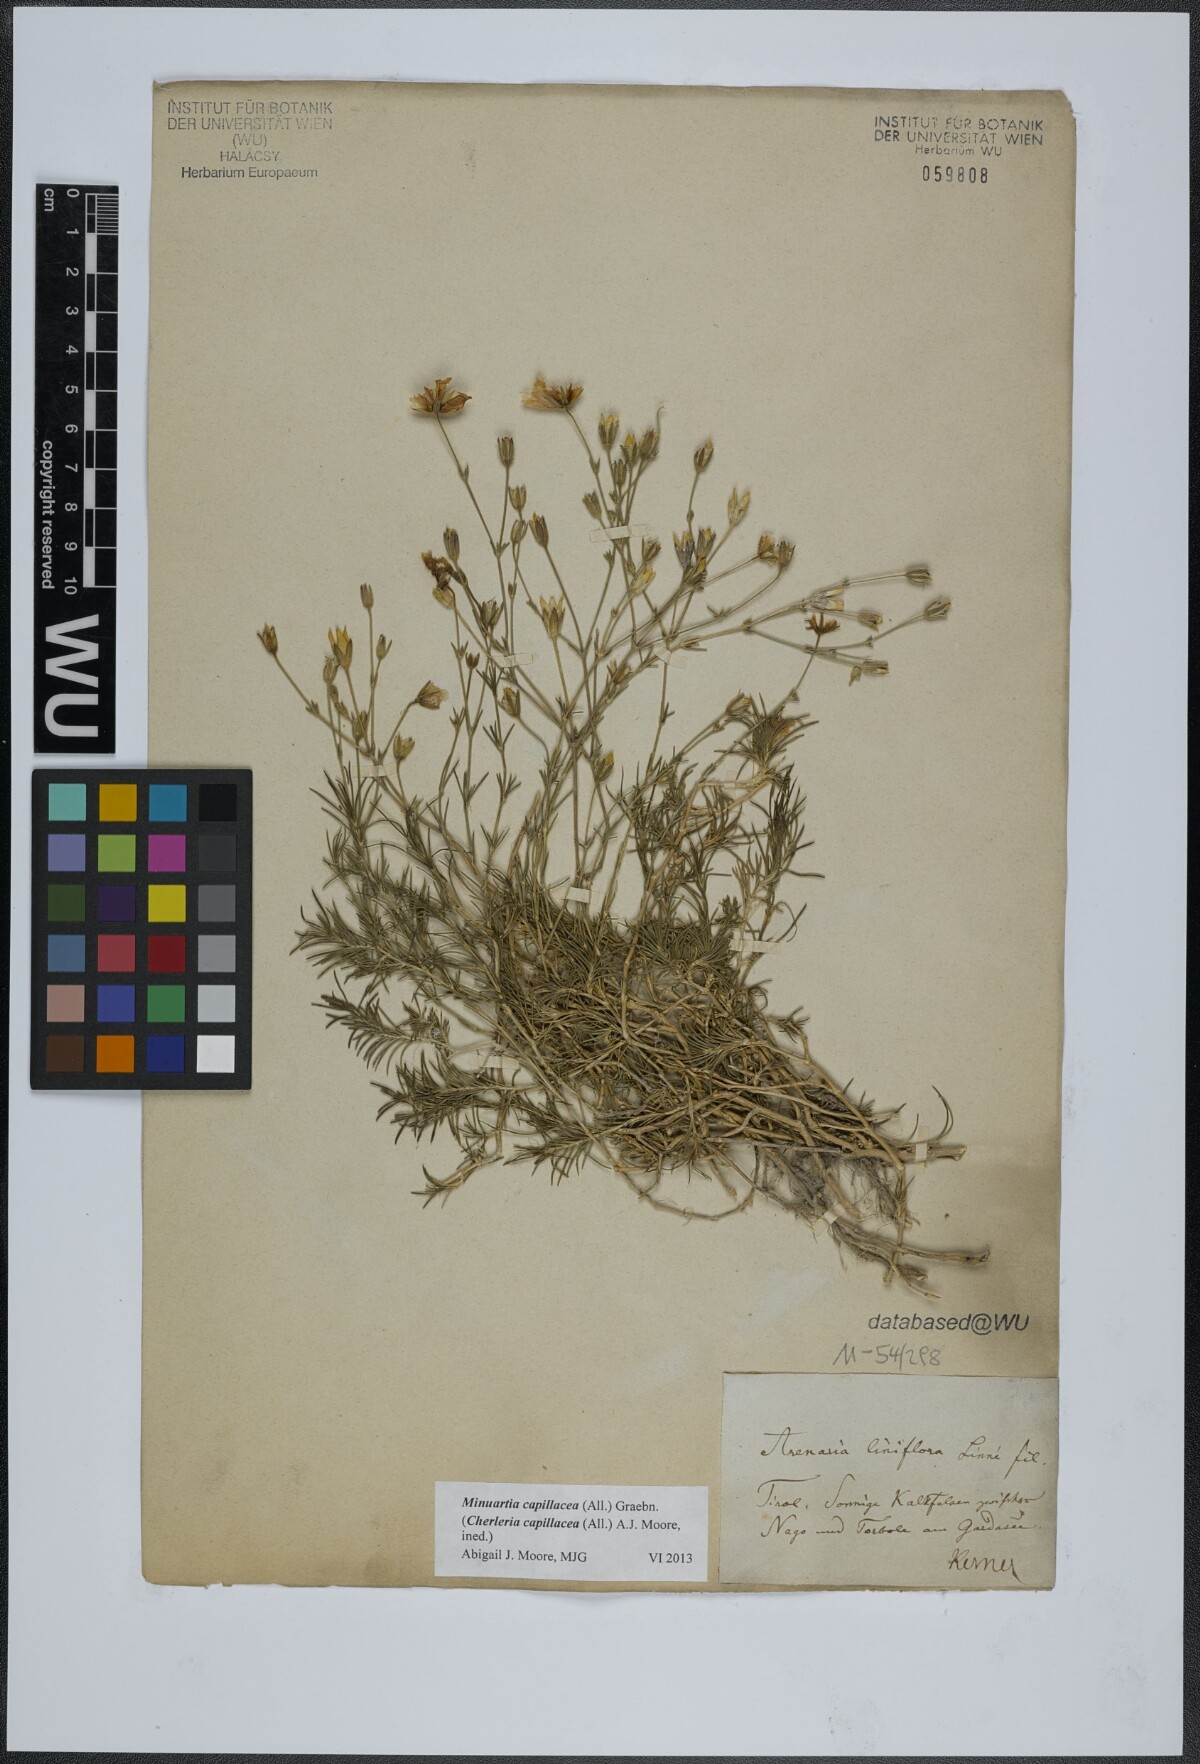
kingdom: Plantae
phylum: Tracheophyta
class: Magnoliopsida
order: Caryophyllales
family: Caryophyllaceae
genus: Cherleria
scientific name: Cherleria capillacea
